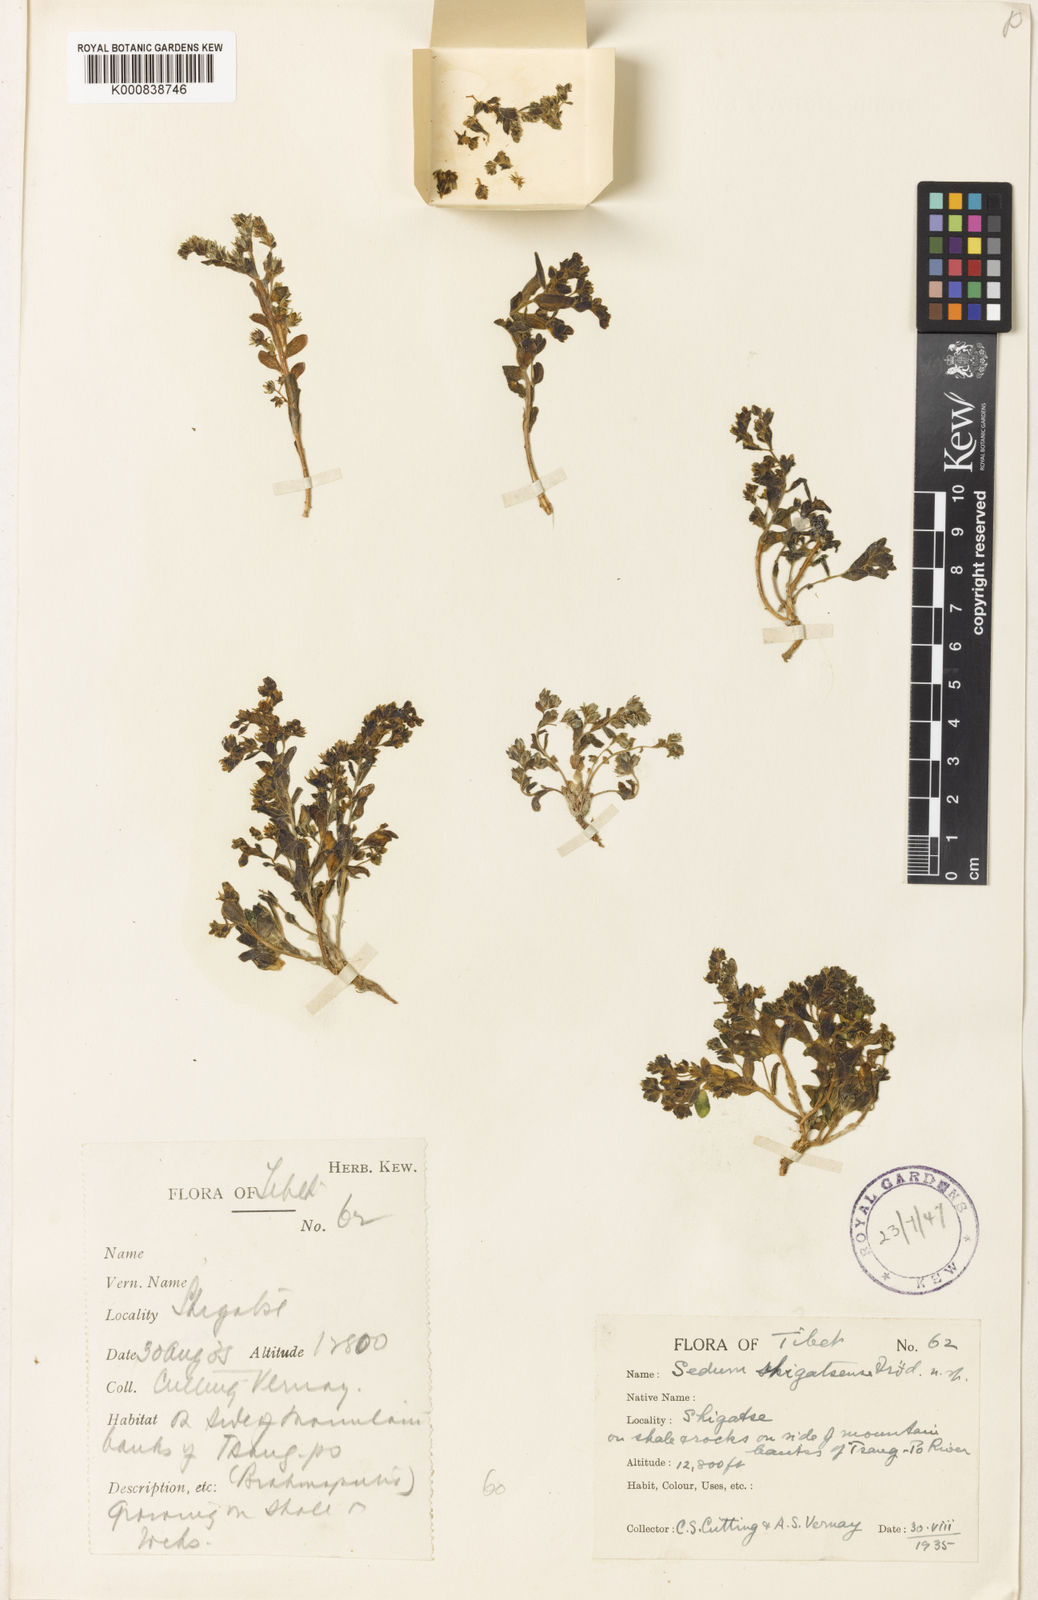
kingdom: Plantae
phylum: Tracheophyta
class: Magnoliopsida
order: Saxifragales
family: Crassulaceae
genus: Sedum
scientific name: Sedum
